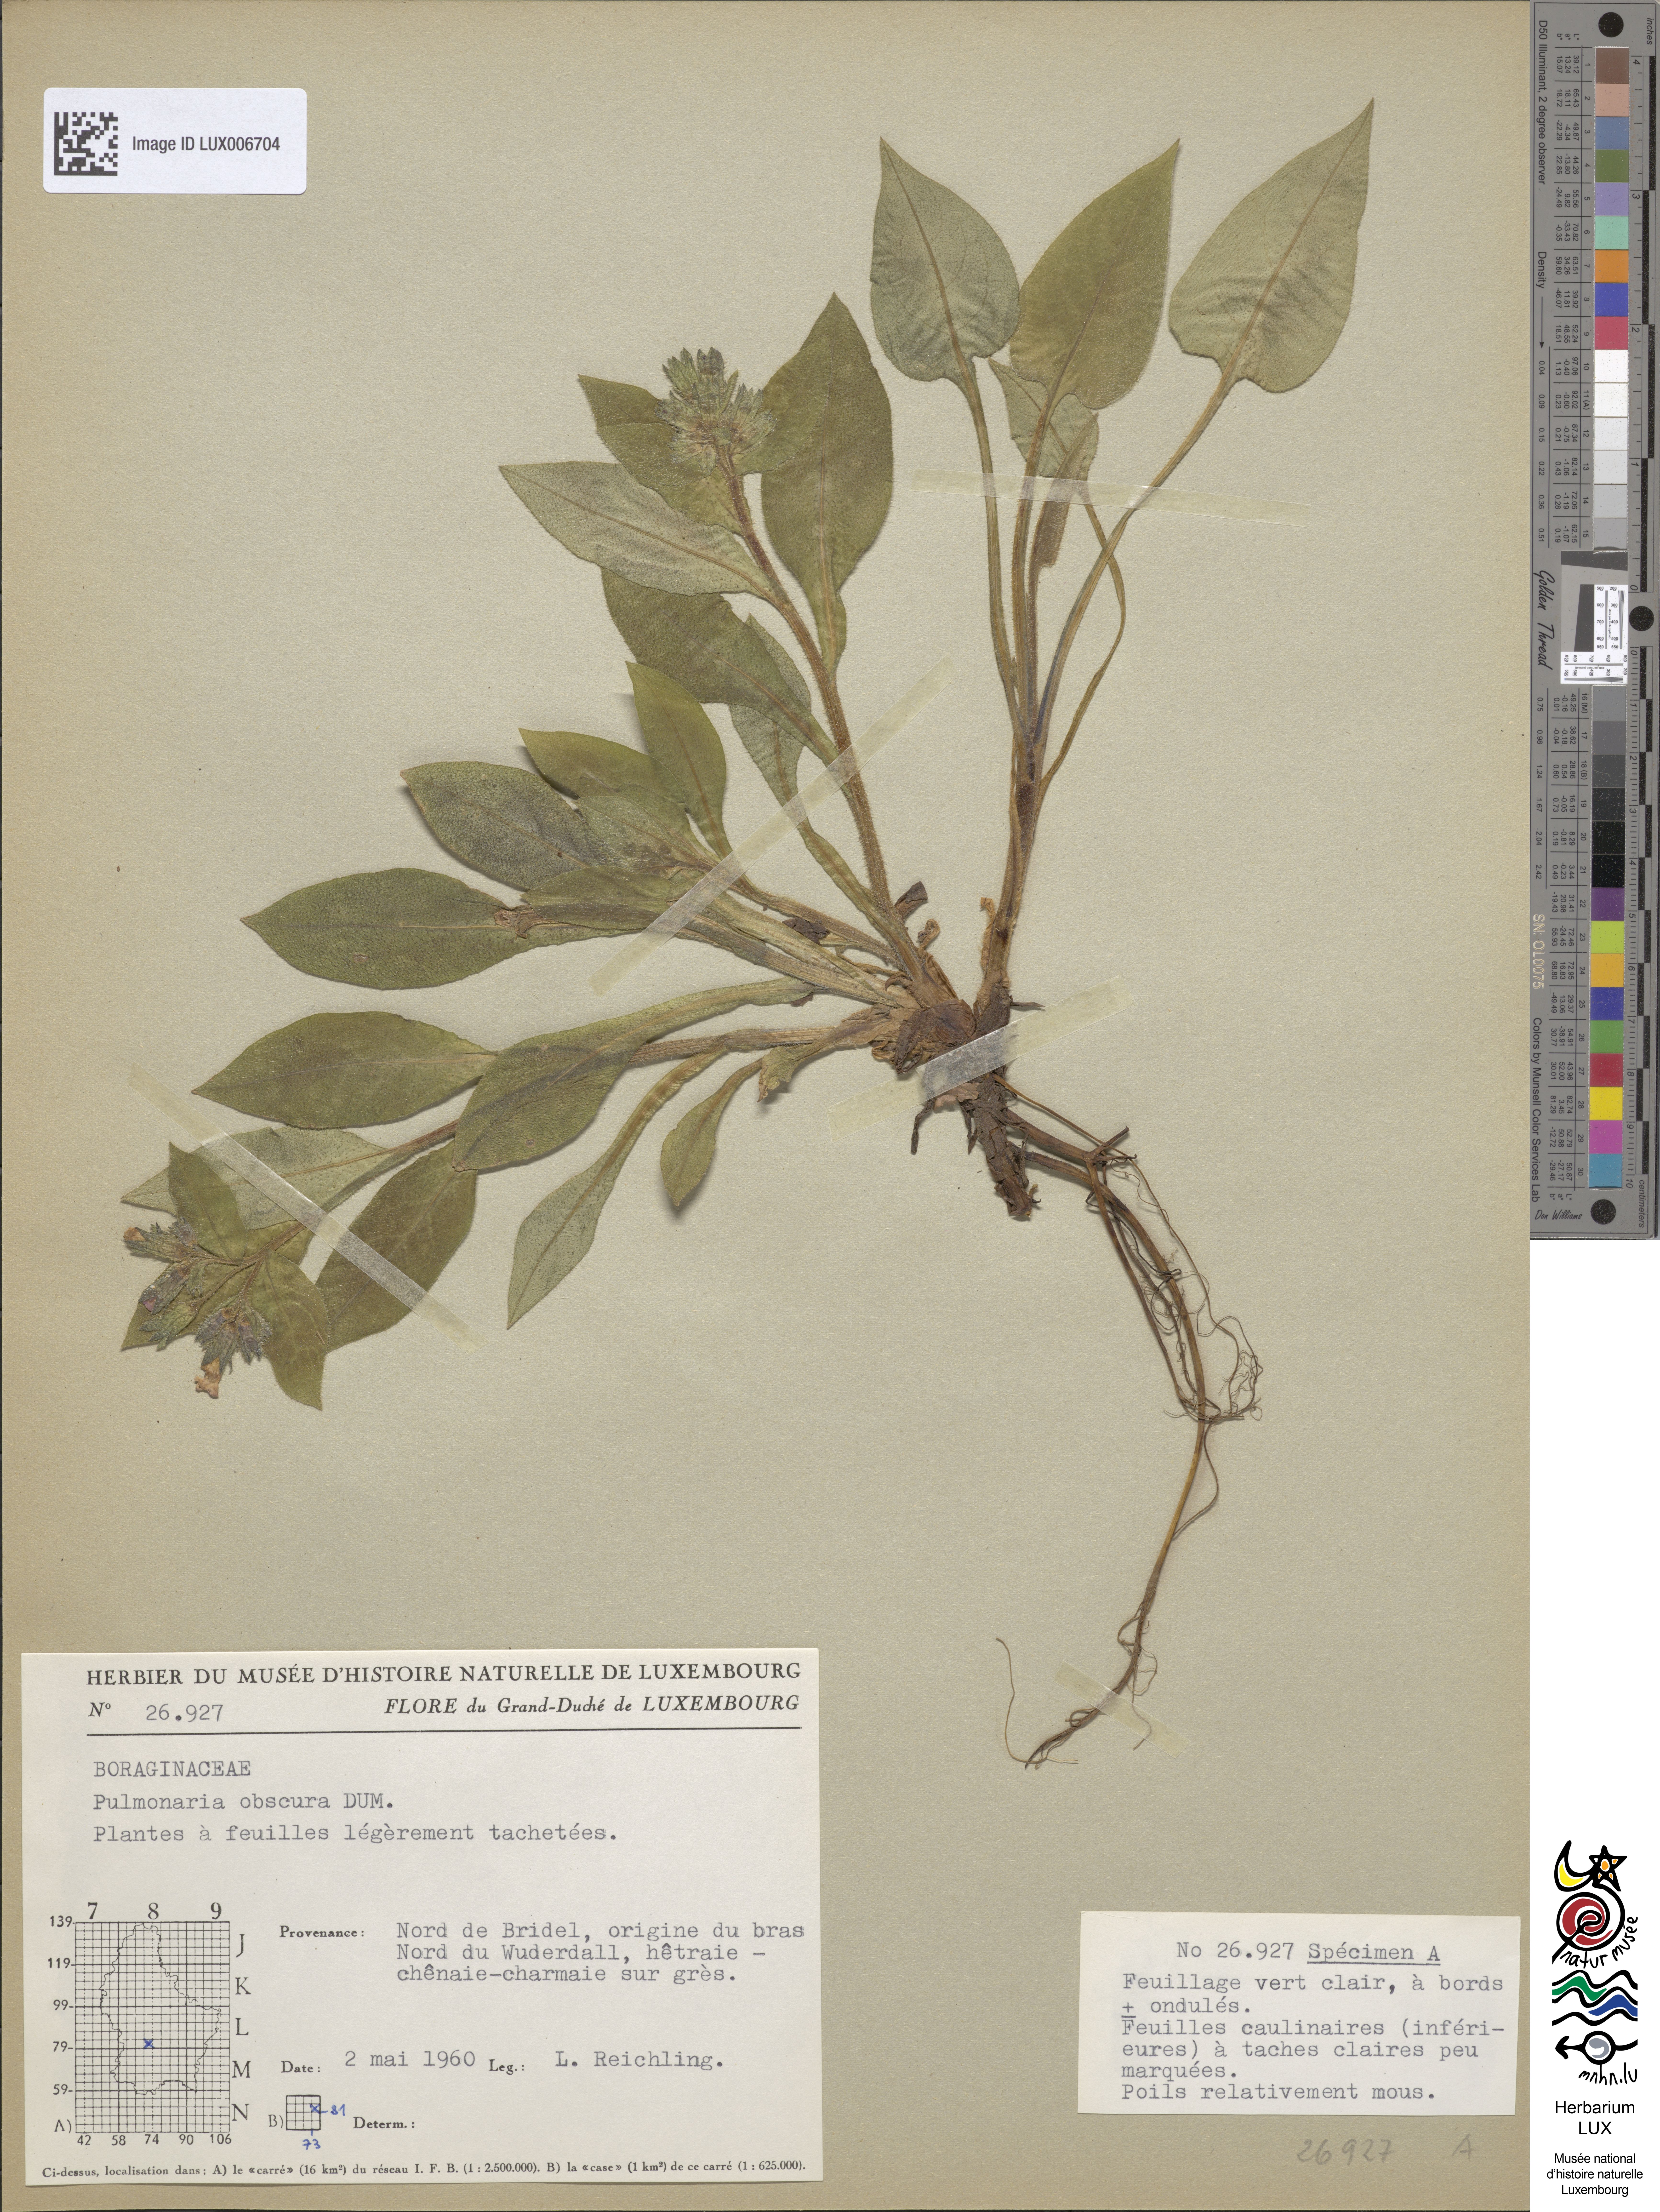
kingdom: Plantae
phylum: Tracheophyta
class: Magnoliopsida
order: Boraginales
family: Boraginaceae
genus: Pulmonaria
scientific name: Pulmonaria obscura
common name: Suffolk lungwort
